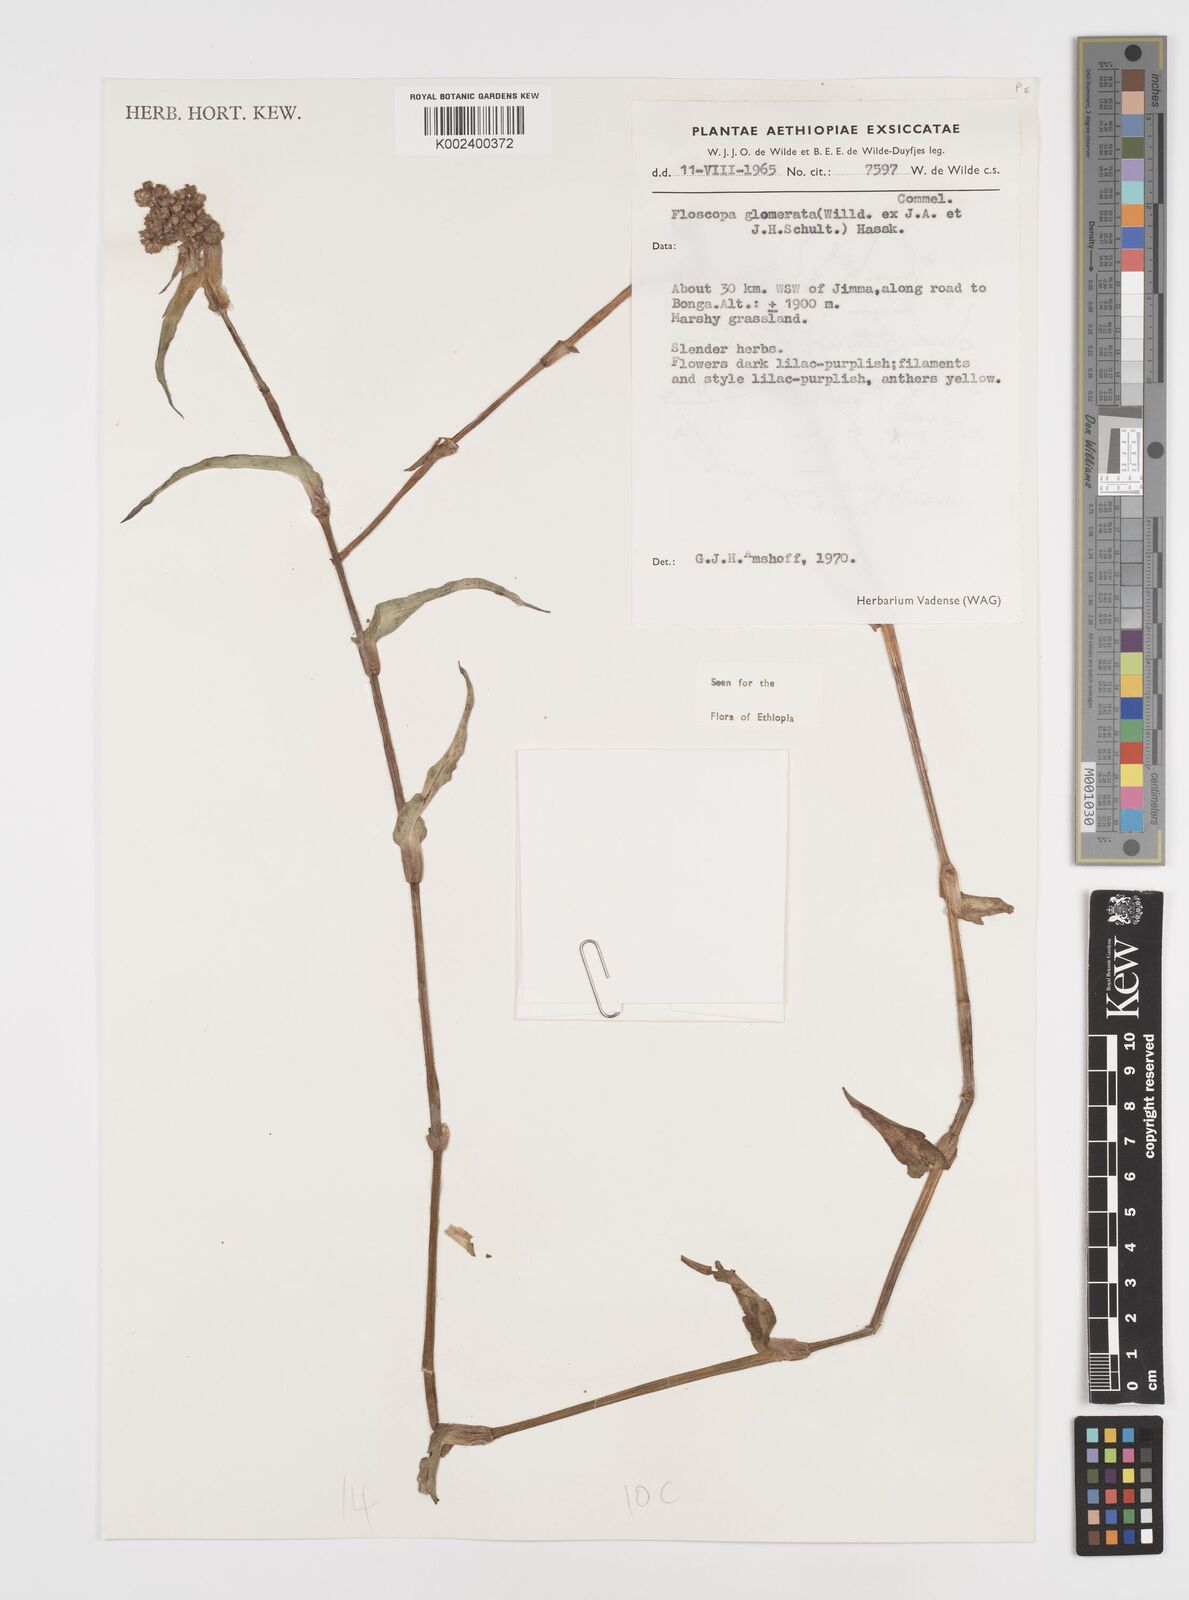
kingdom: Plantae
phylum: Tracheophyta
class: Liliopsida
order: Commelinales
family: Commelinaceae
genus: Floscopa
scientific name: Floscopa glomerata
